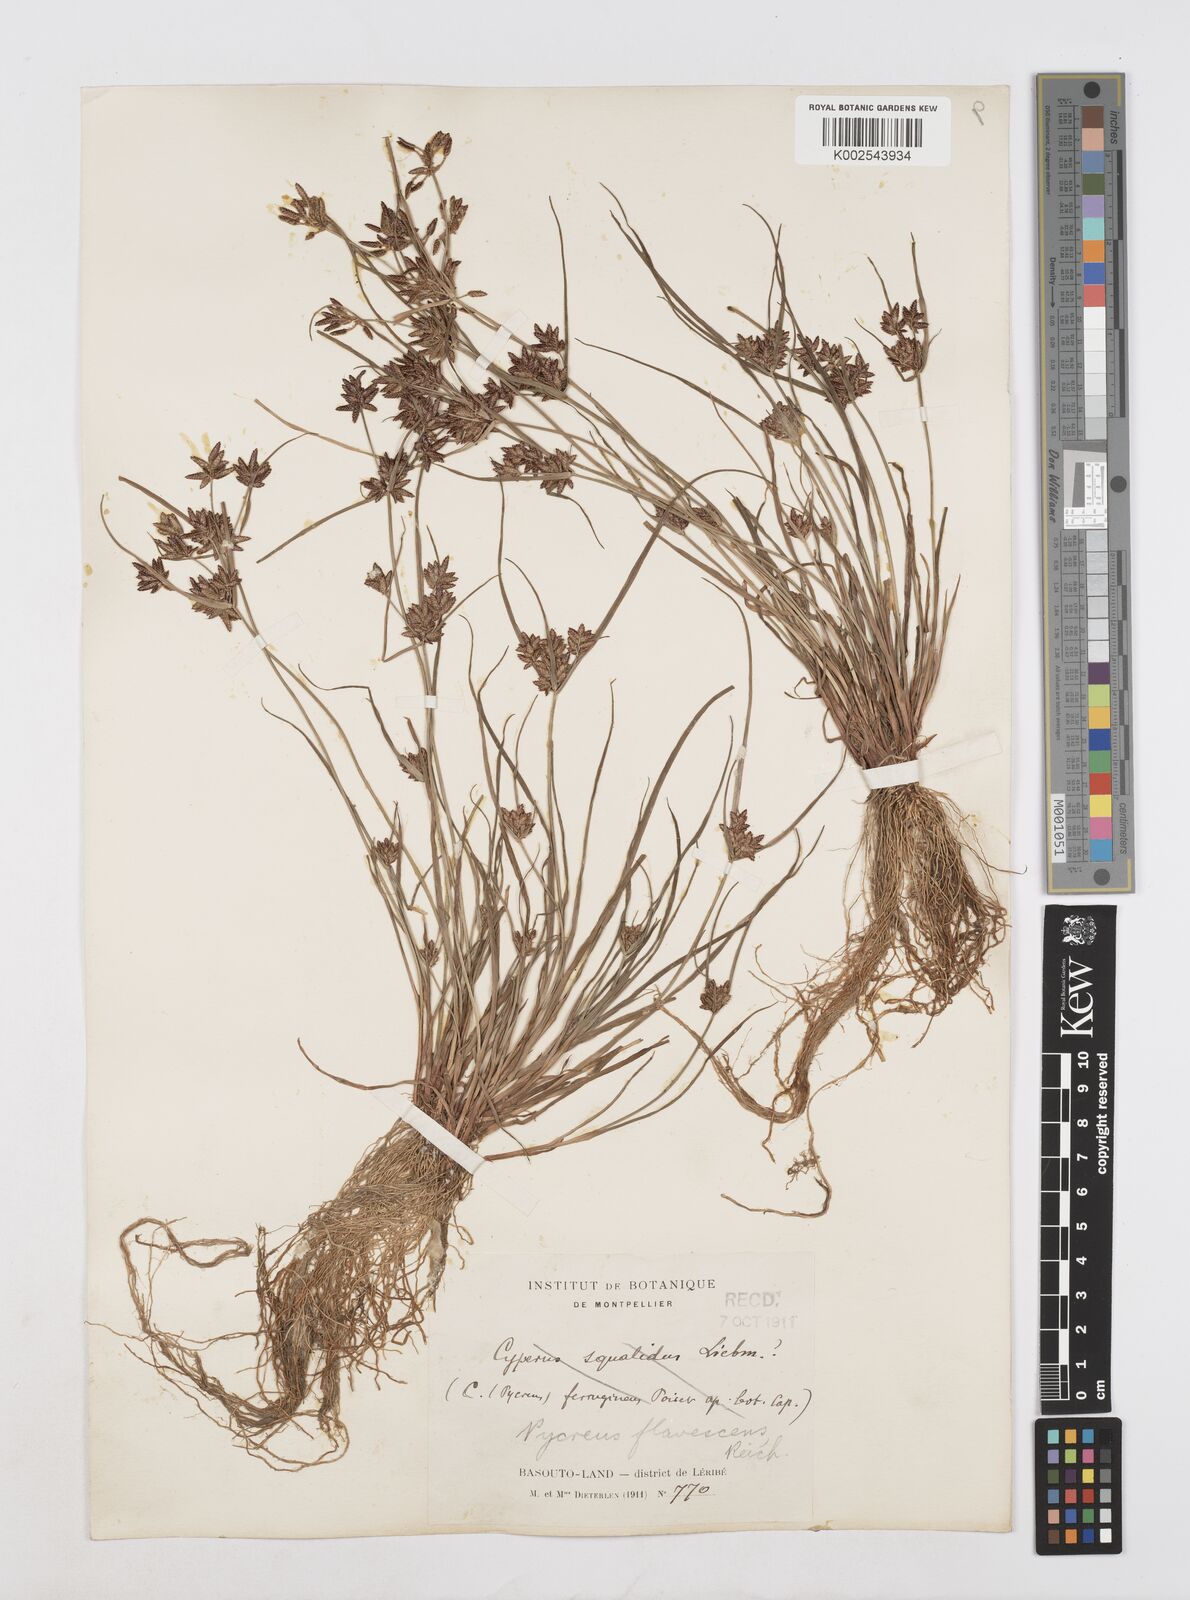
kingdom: Plantae
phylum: Tracheophyta
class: Liliopsida
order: Poales
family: Cyperaceae
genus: Cyperus
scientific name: Cyperus flavescens
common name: Yellow galingale
